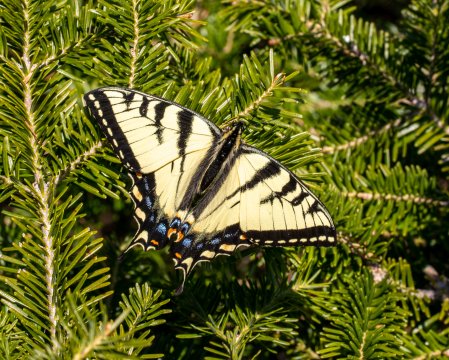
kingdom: Animalia
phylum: Arthropoda
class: Insecta
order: Lepidoptera
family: Papilionidae
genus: Pterourus
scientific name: Pterourus canadensis
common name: Canadian Tiger Swallowtail
